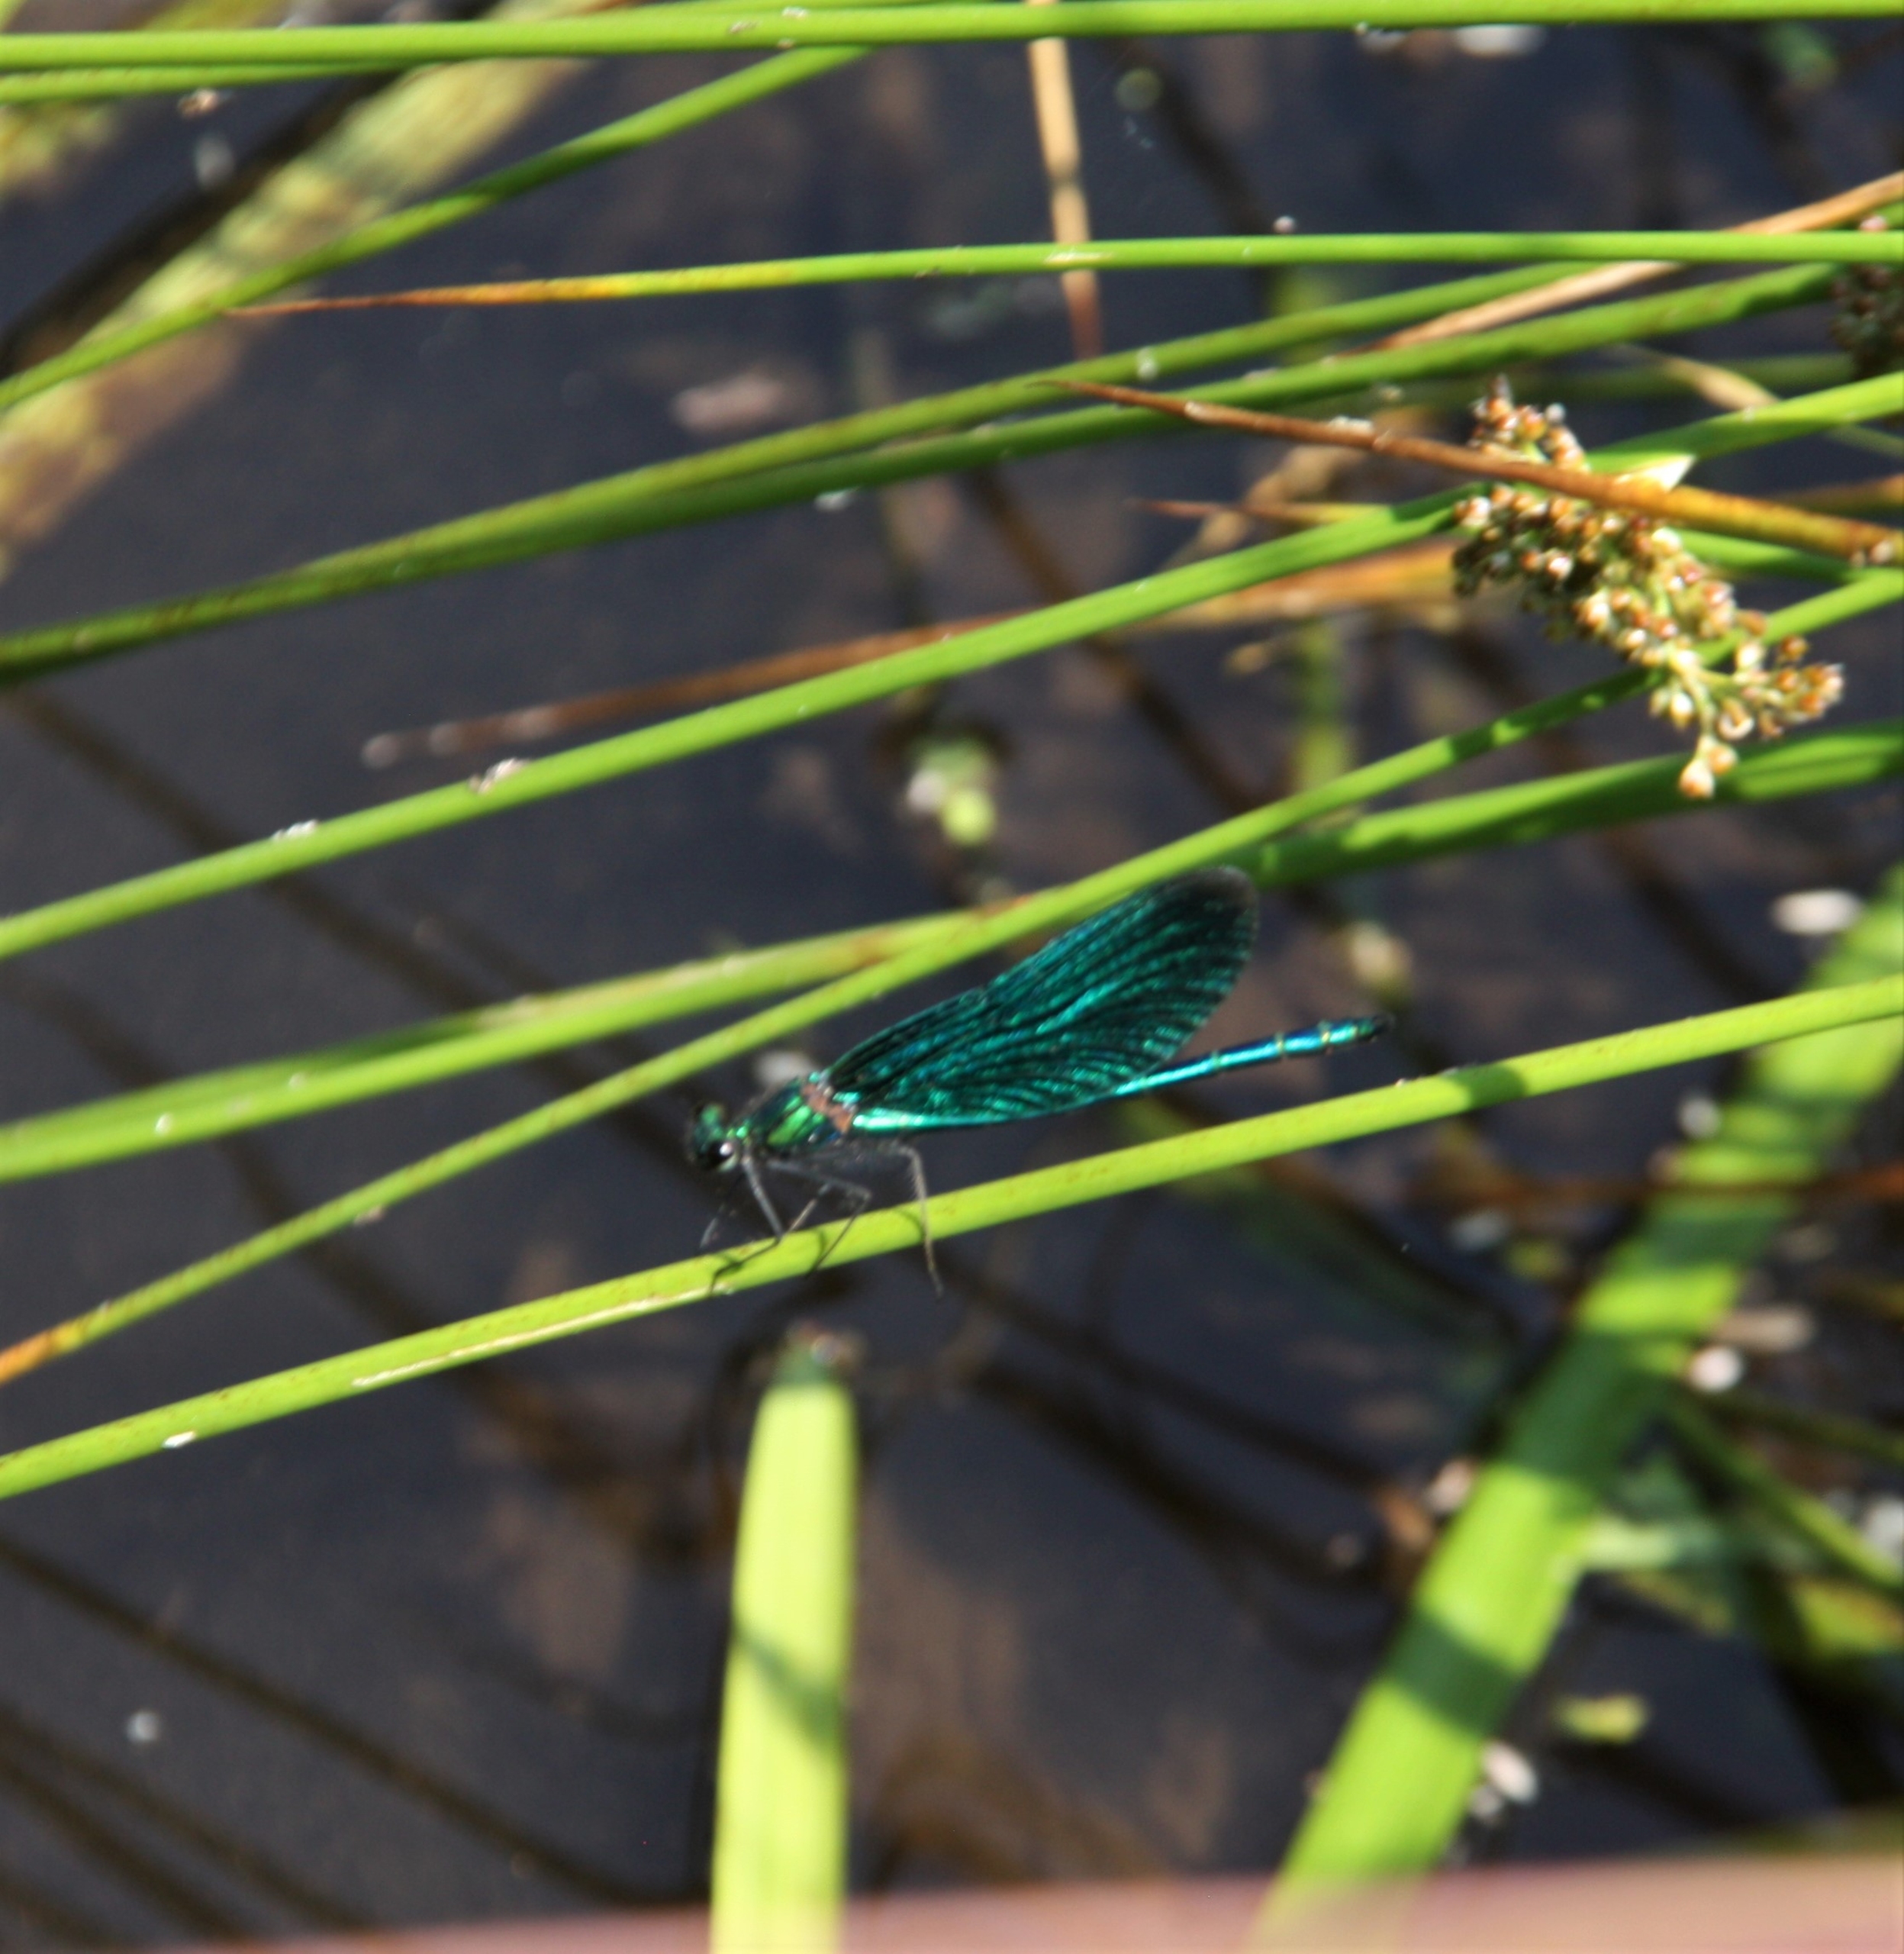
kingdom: Animalia
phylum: Arthropoda
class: Insecta
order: Odonata
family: Calopterygidae
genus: Calopteryx
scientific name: Calopteryx virgo
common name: Blåvinget pragtvandnymfe
